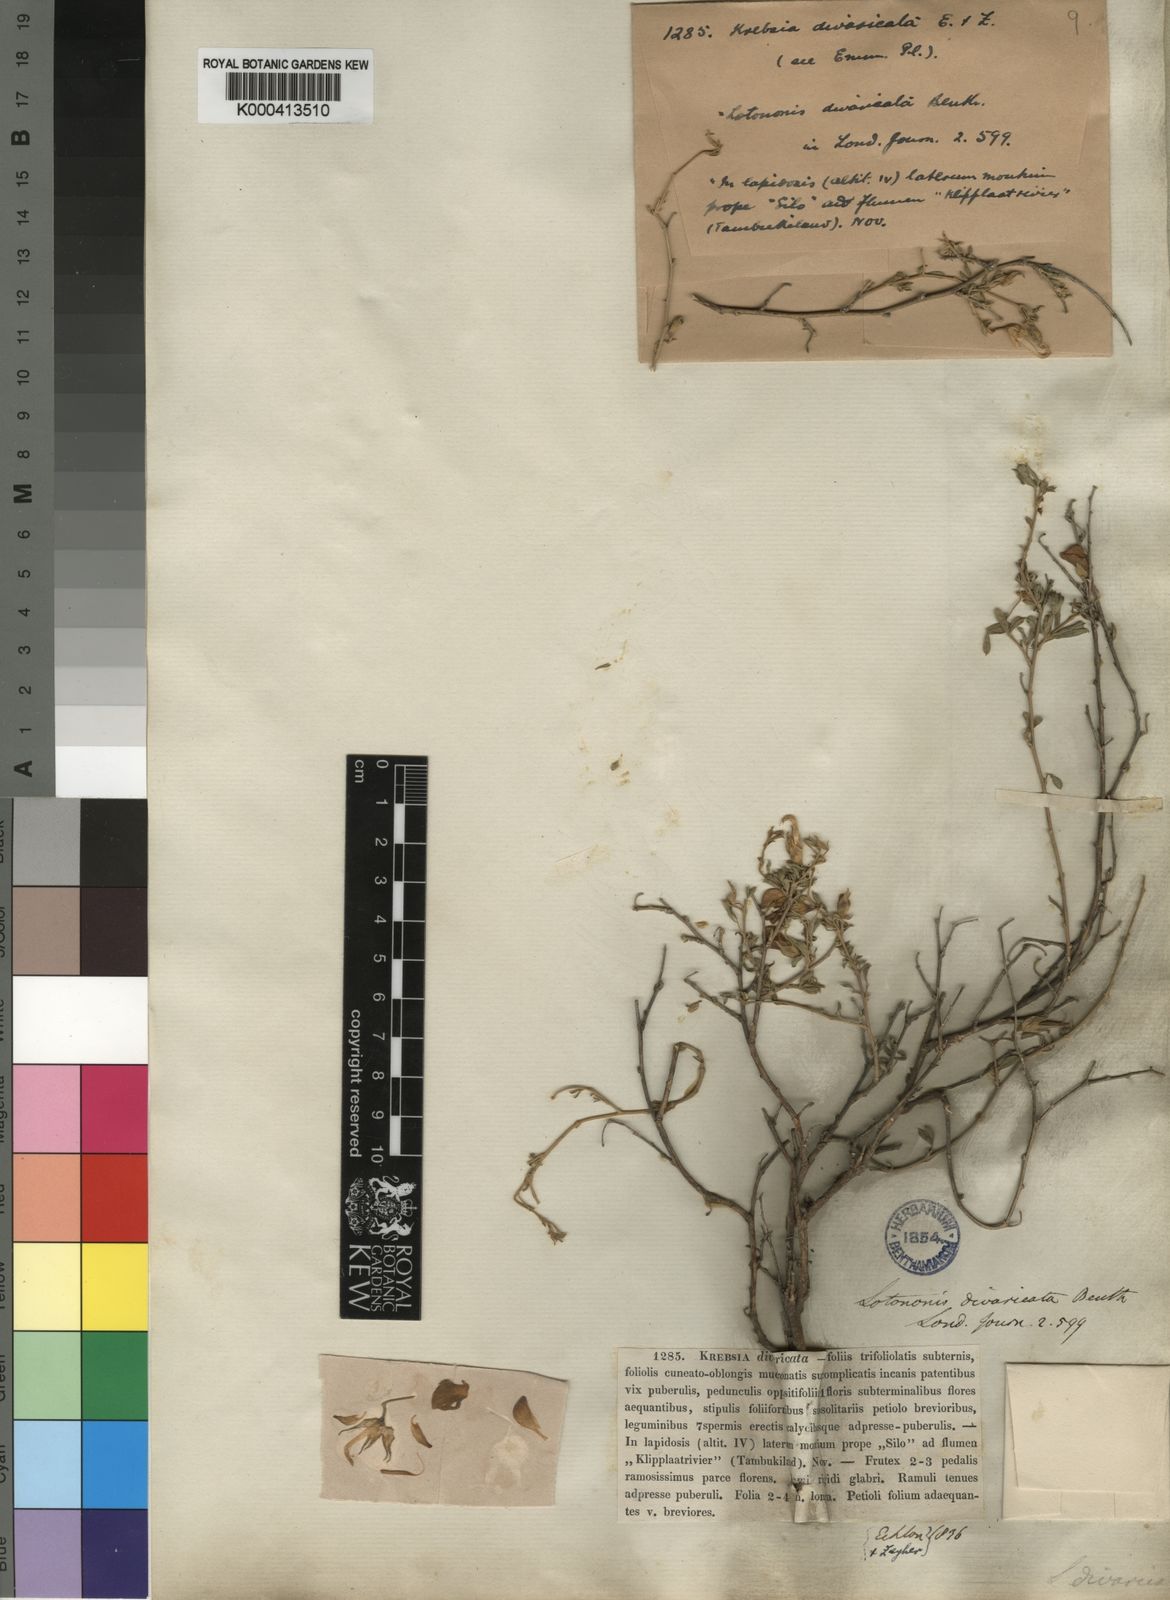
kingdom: Plantae
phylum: Tracheophyta
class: Magnoliopsida
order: Fabales
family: Fabaceae
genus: Lotononis
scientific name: Lotononis divaricata
